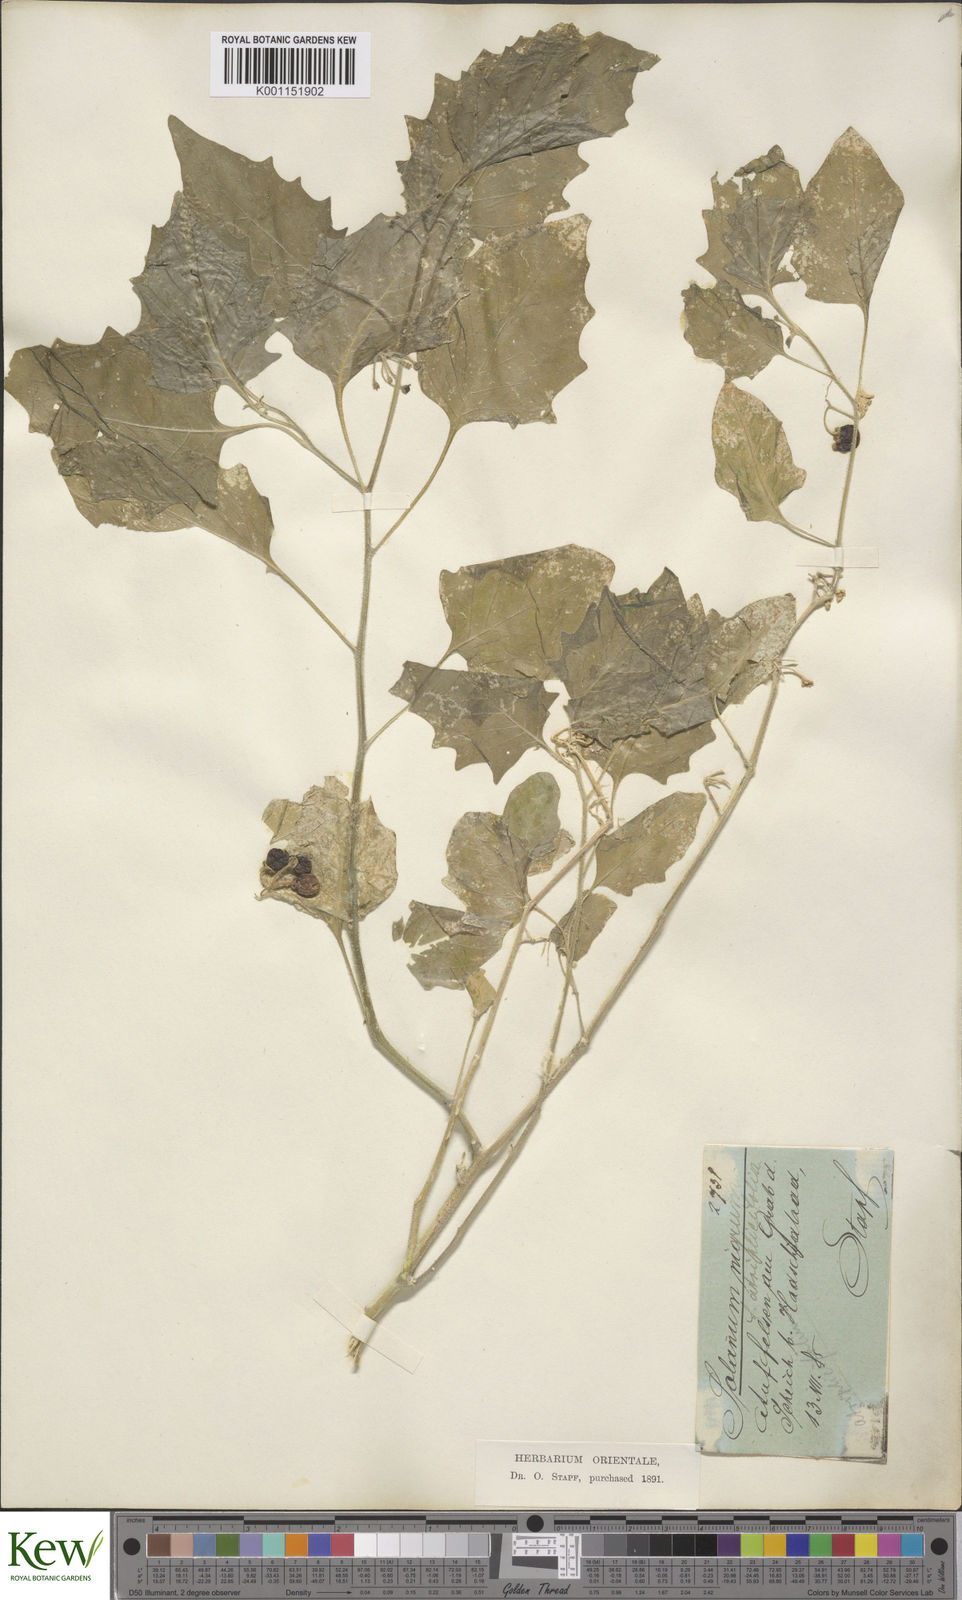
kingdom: Plantae
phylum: Tracheophyta
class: Magnoliopsida
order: Solanales
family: Solanaceae
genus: Solanum
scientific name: Solanum villosum
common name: Red nightshade
